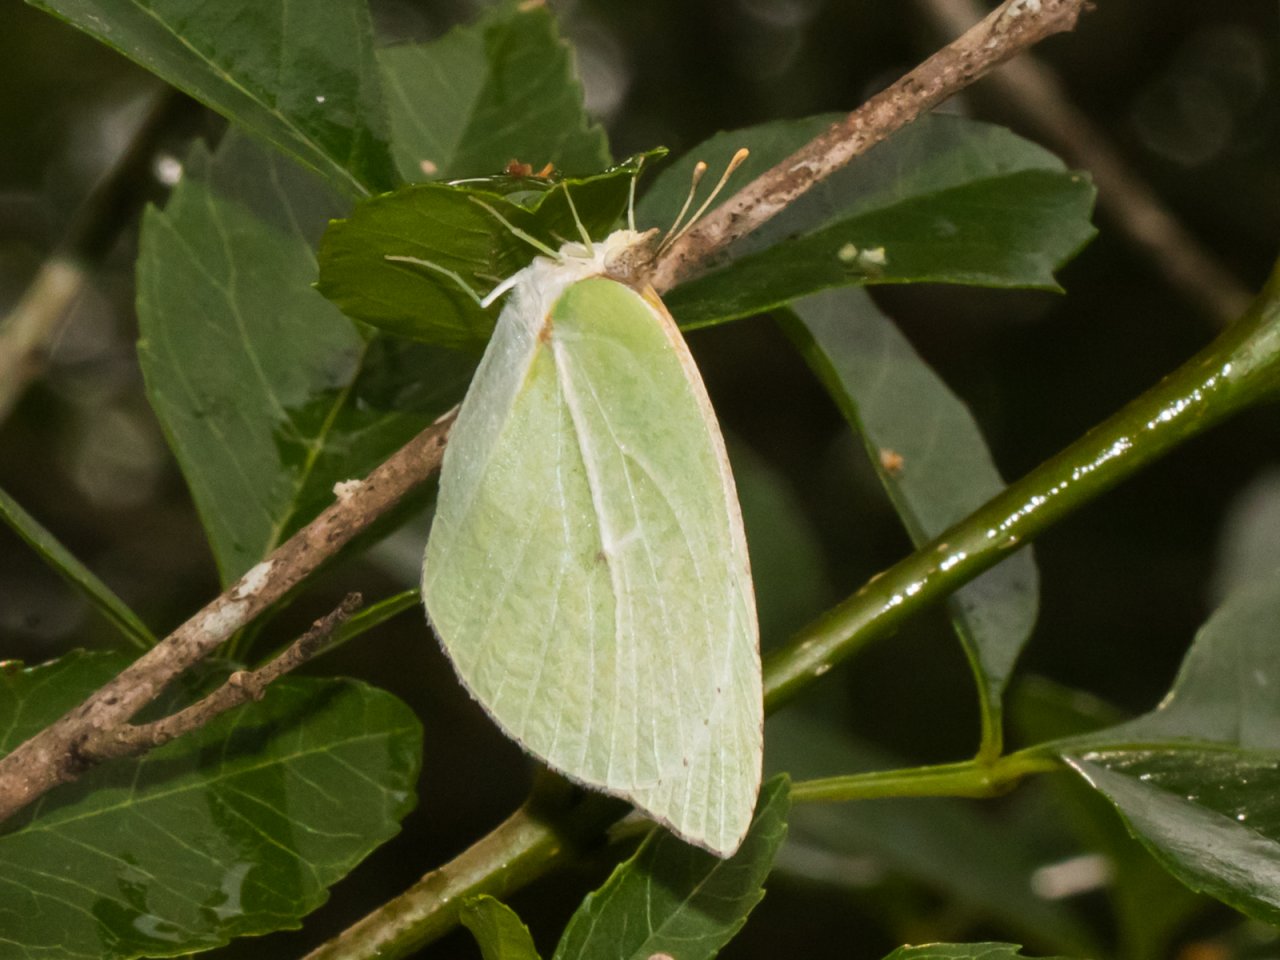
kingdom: Animalia
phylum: Arthropoda
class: Insecta
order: Lepidoptera
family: Pieridae
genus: Kricogonia
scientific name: Kricogonia lyside
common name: Lyside Sulphur
